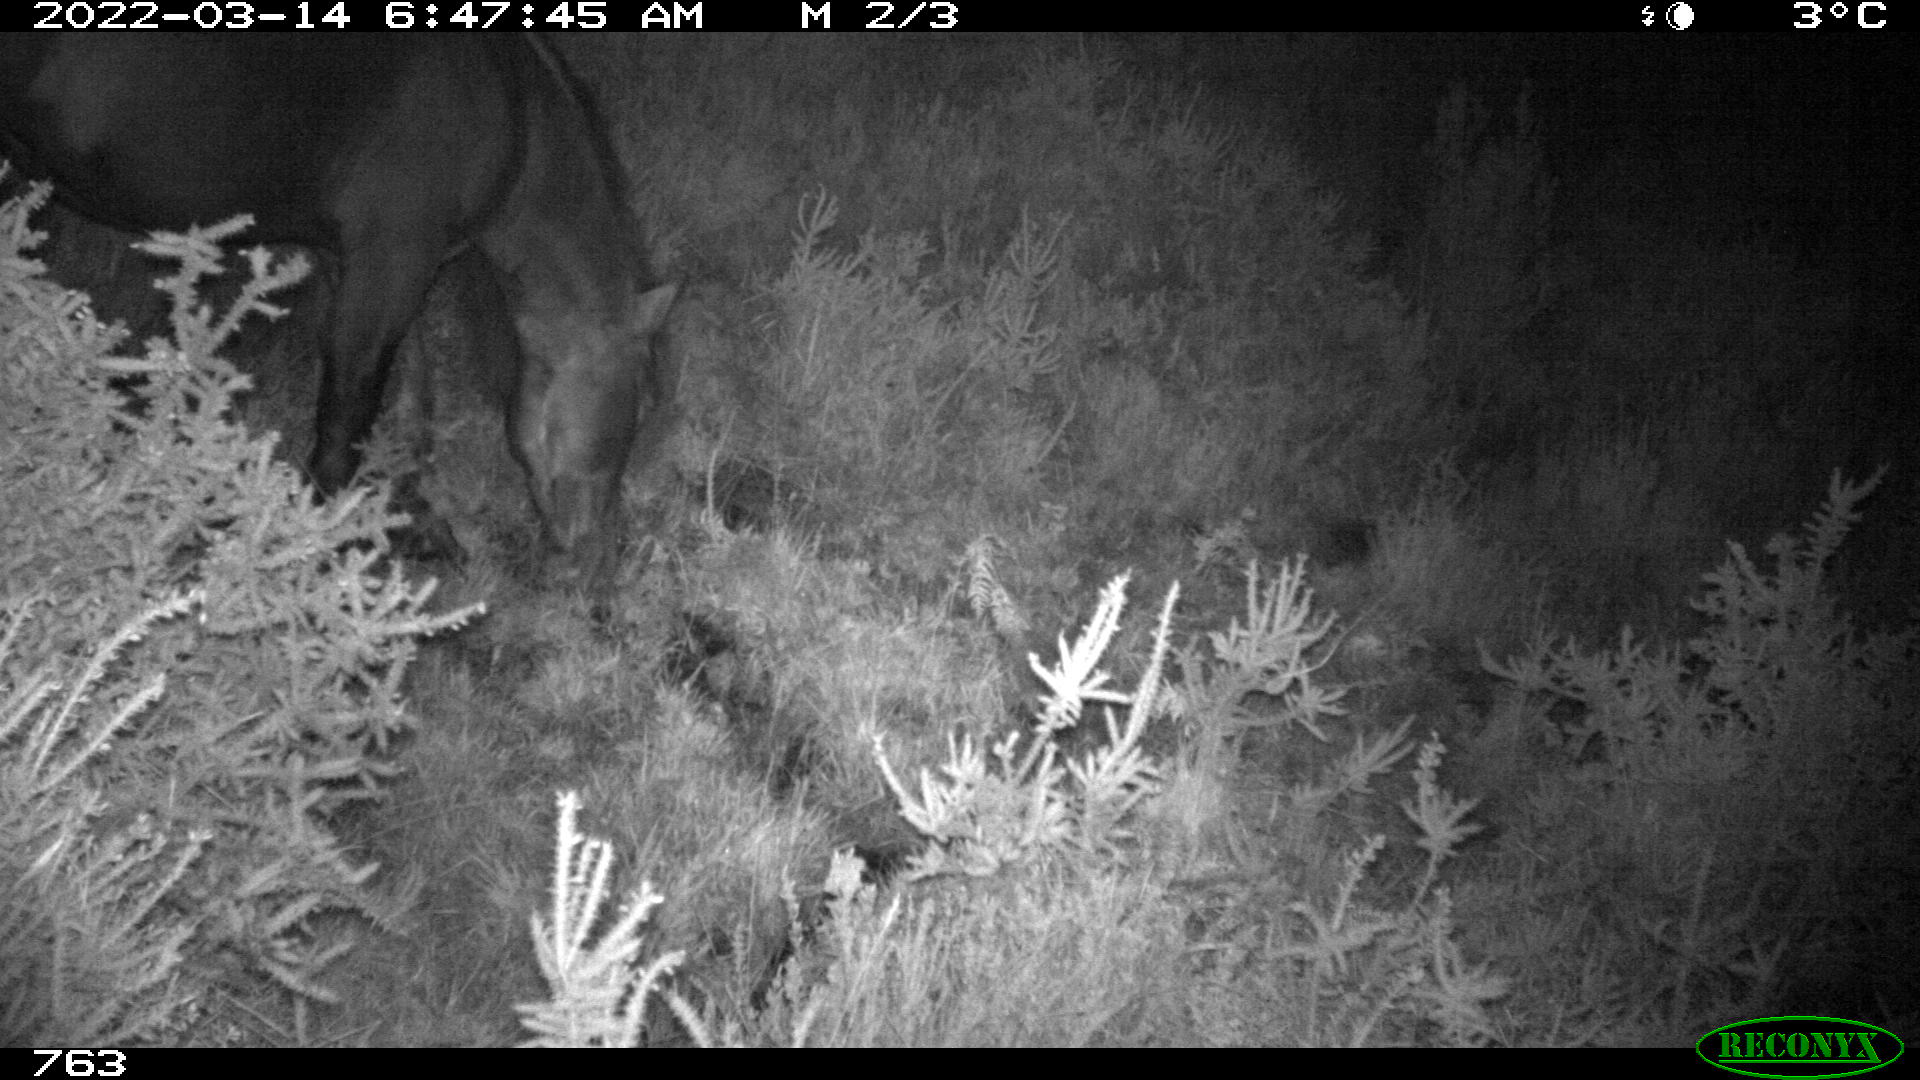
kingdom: Animalia
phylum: Chordata
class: Mammalia
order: Perissodactyla
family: Equidae
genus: Equus
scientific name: Equus caballus
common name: Horse
